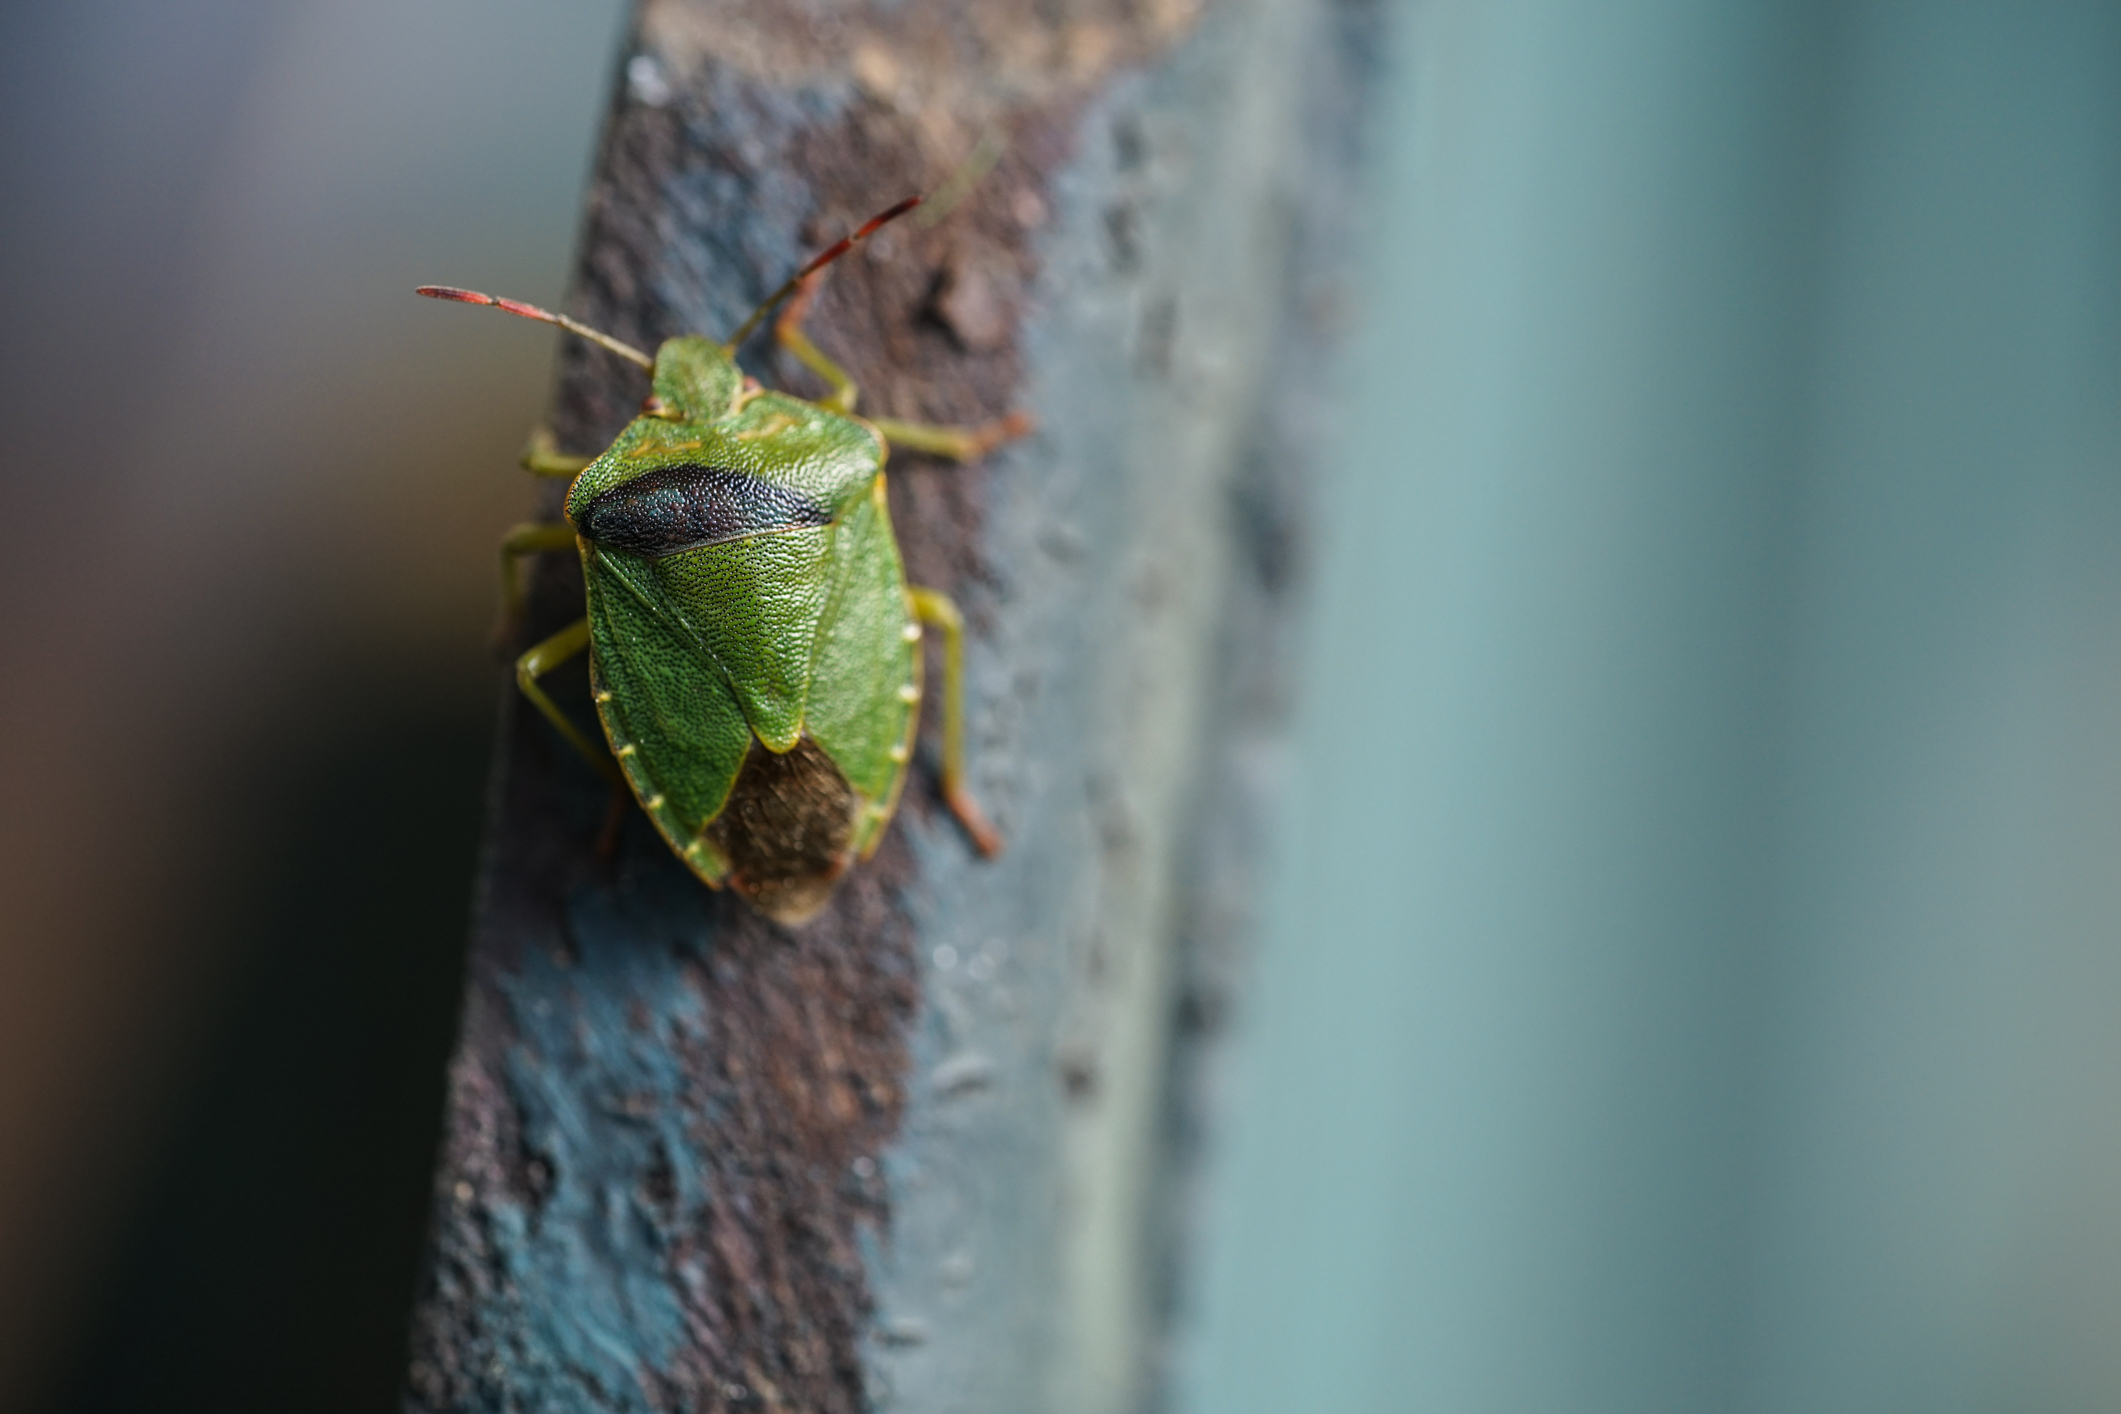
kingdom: Animalia
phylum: Arthropoda
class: Insecta
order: Hemiptera
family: Pentatomidae
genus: Palomena
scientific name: Palomena prasina
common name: Green shieldbug
